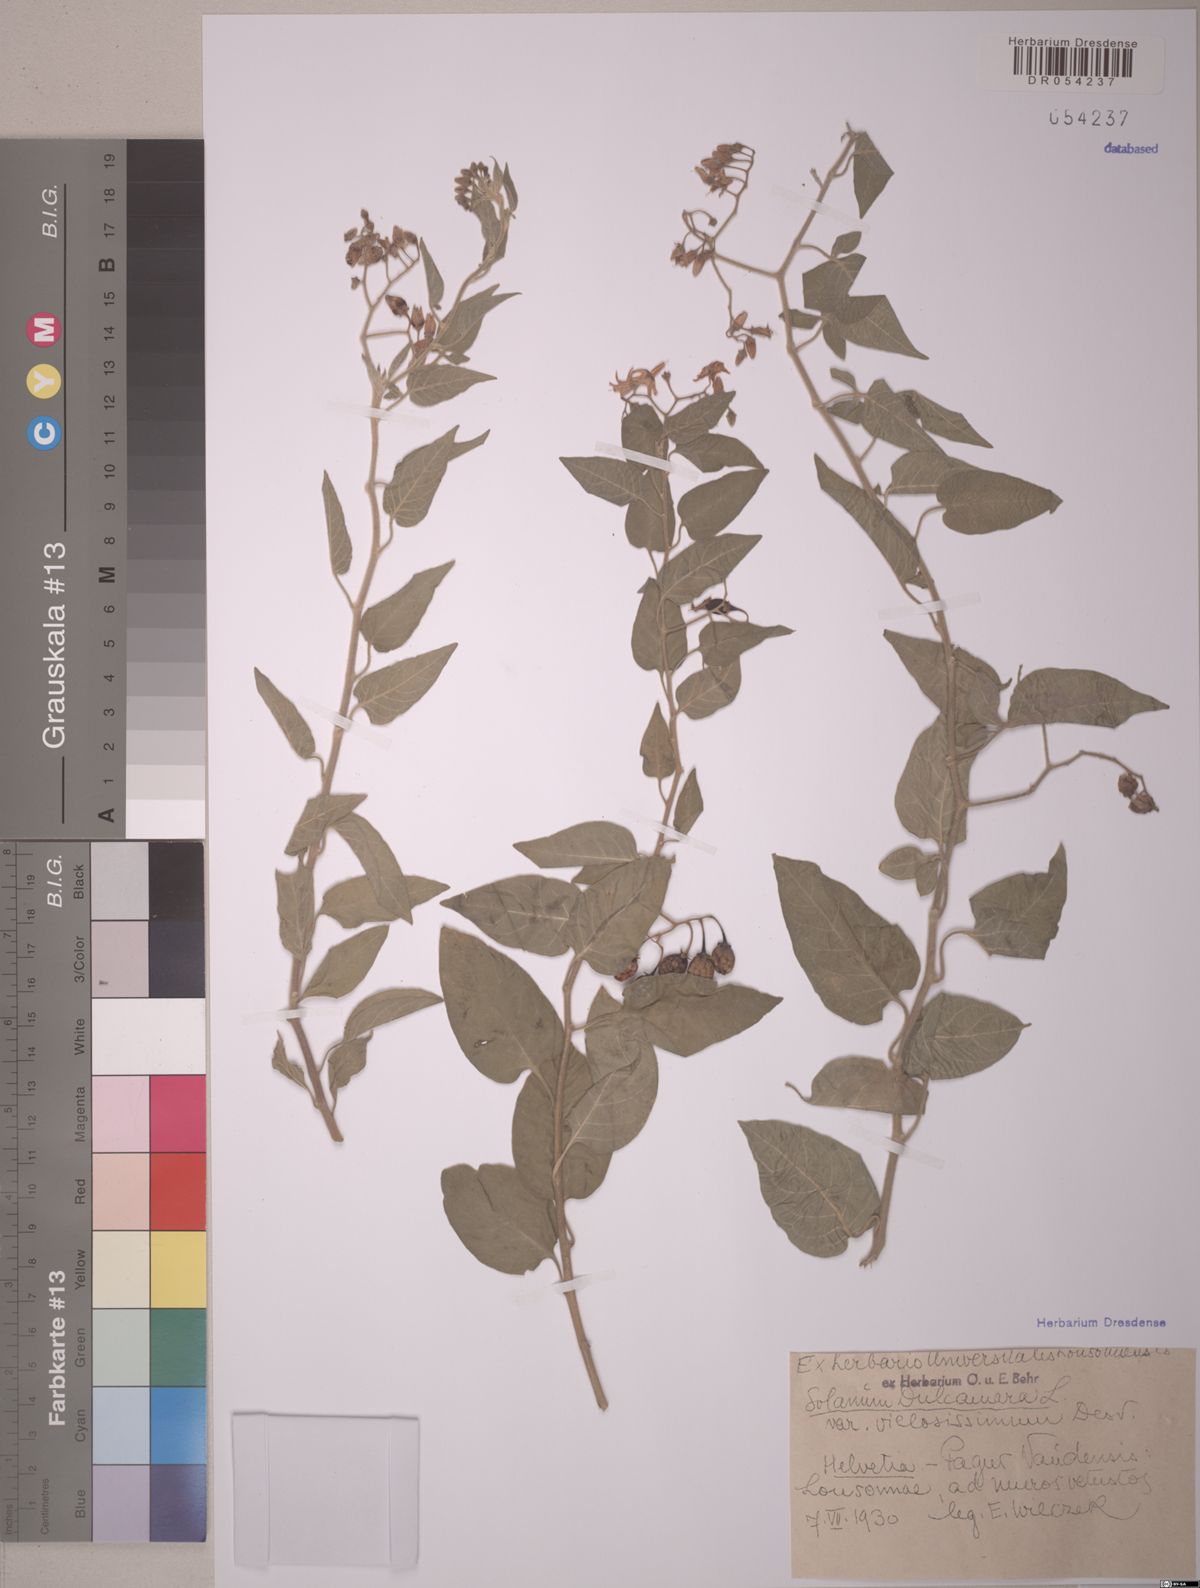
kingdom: Plantae
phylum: Tracheophyta
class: Magnoliopsida
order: Solanales
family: Solanaceae
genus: Solanum
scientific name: Solanum dulcamara
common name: Climbing nightshade
